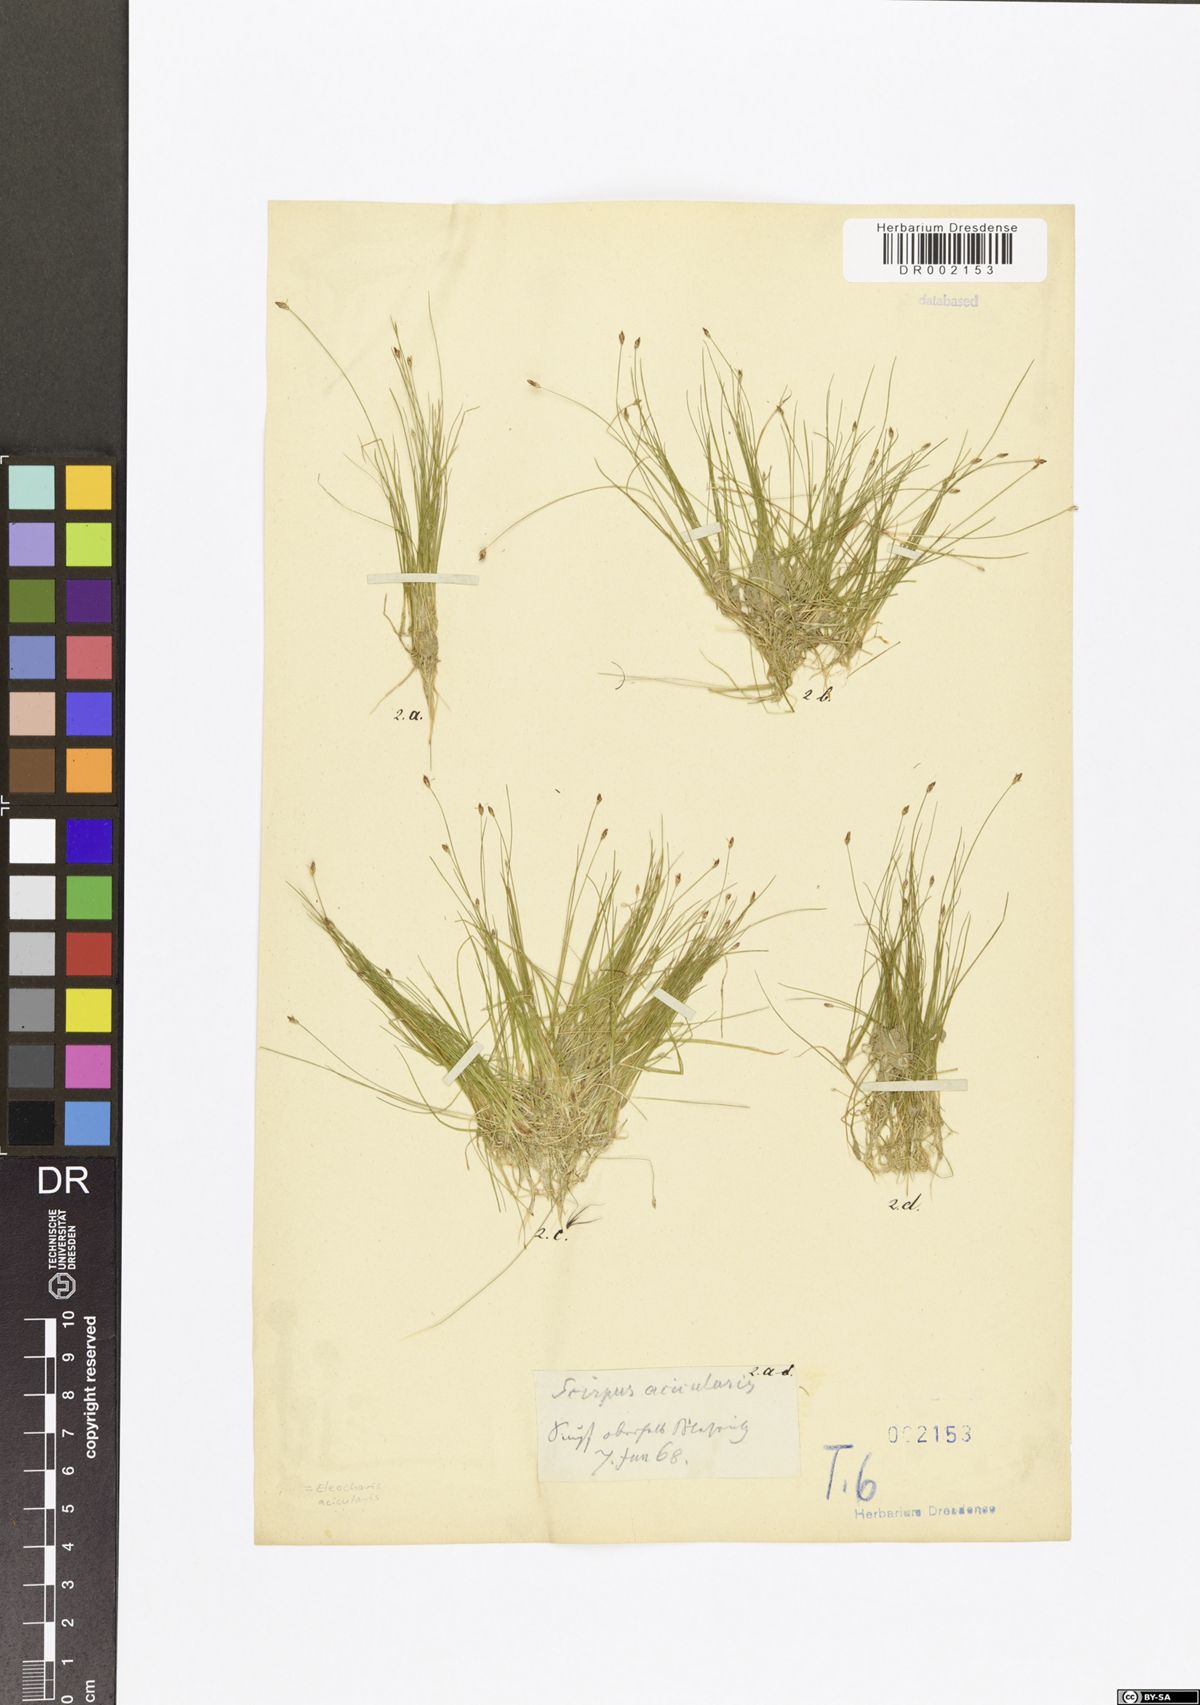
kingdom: Plantae
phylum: Tracheophyta
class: Liliopsida
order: Poales
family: Cyperaceae
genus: Eleocharis
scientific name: Eleocharis acicularis
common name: Needle spike-rush
